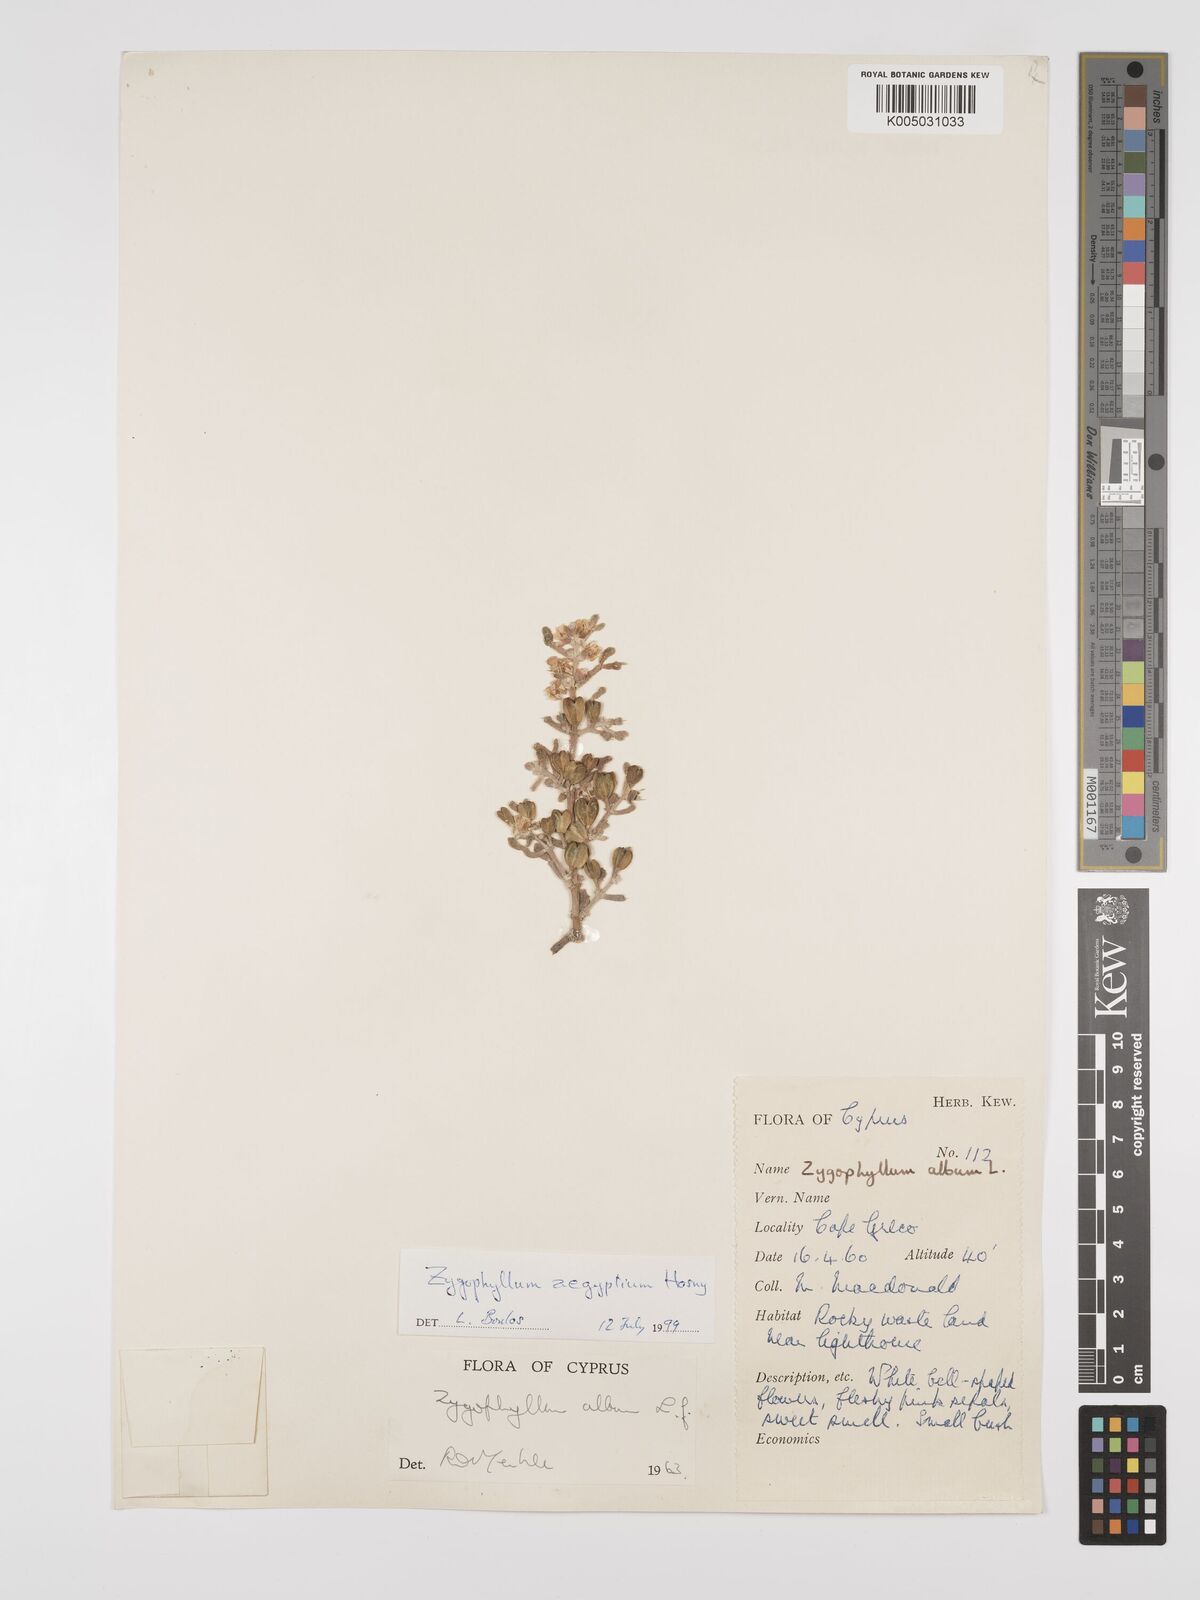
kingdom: Plantae
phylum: Tracheophyta
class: Magnoliopsida
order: Zygophyllales
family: Zygophyllaceae
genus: Zygophyllum
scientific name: Zygophyllum
